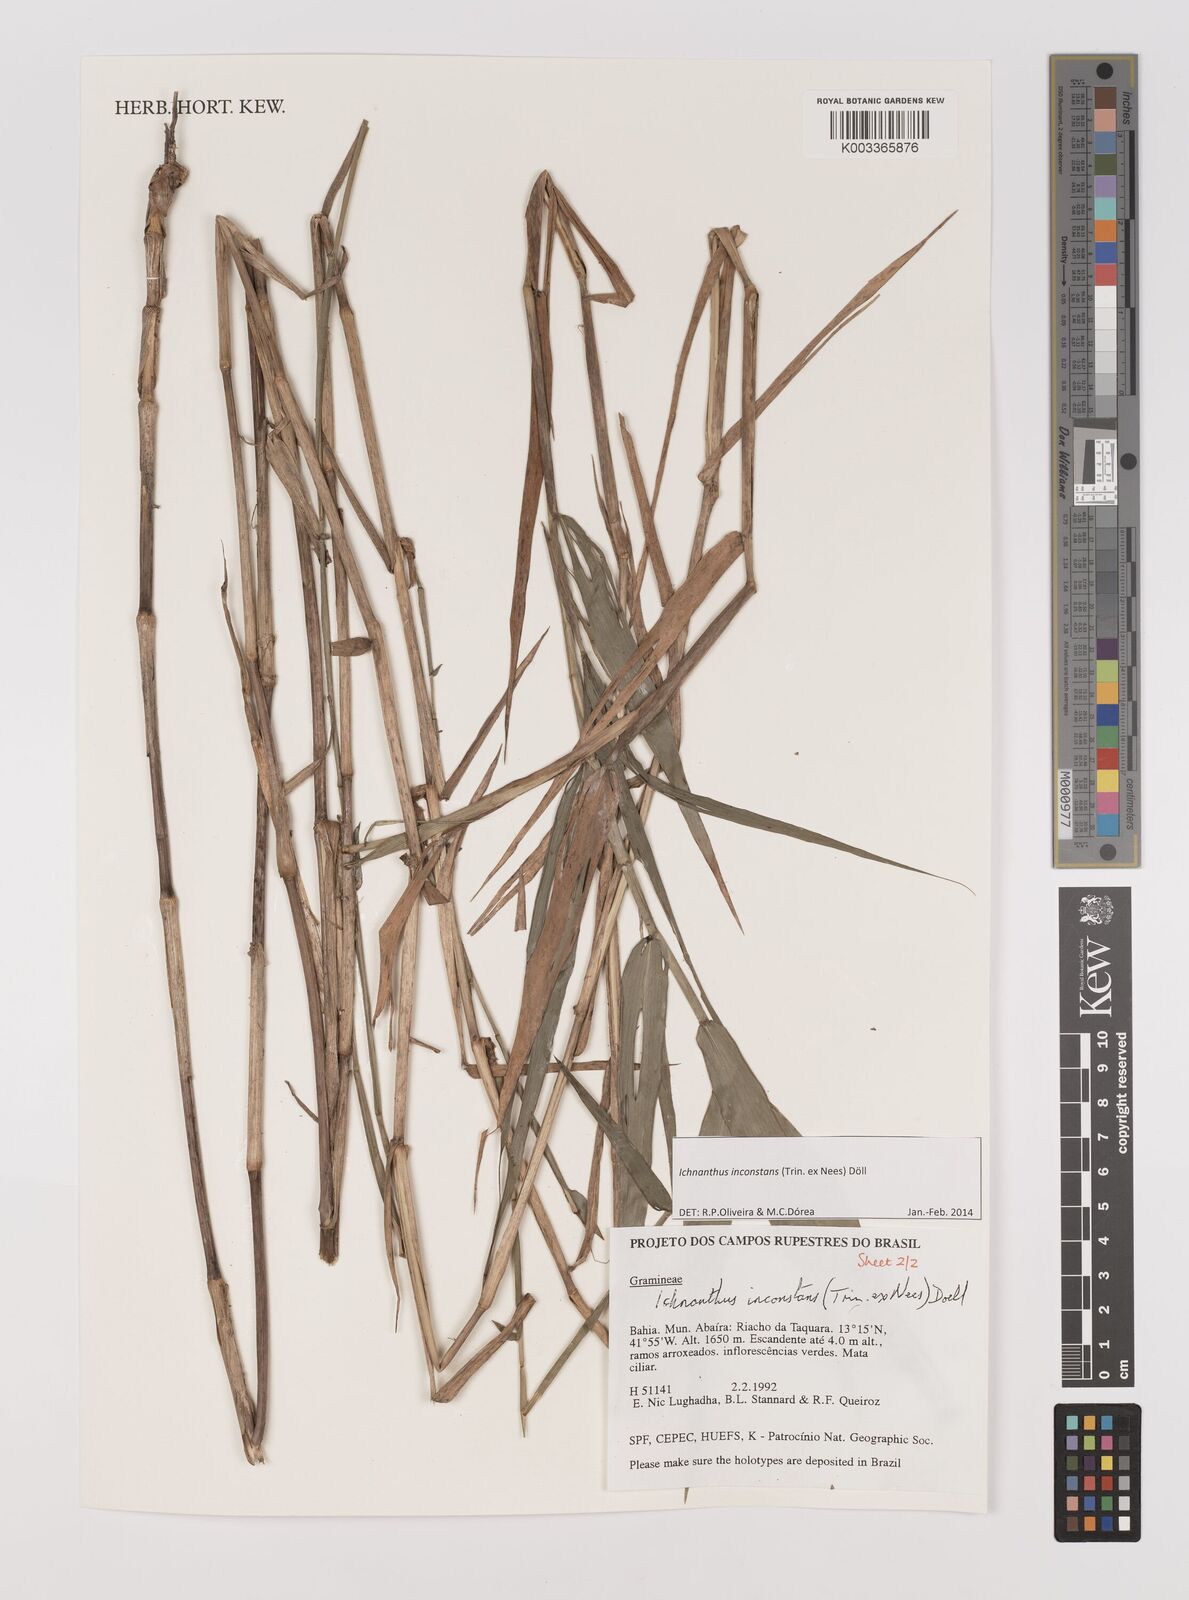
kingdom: Plantae
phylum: Tracheophyta
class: Liliopsida
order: Poales
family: Poaceae
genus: Ichnanthus
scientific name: Ichnanthus inconstans
